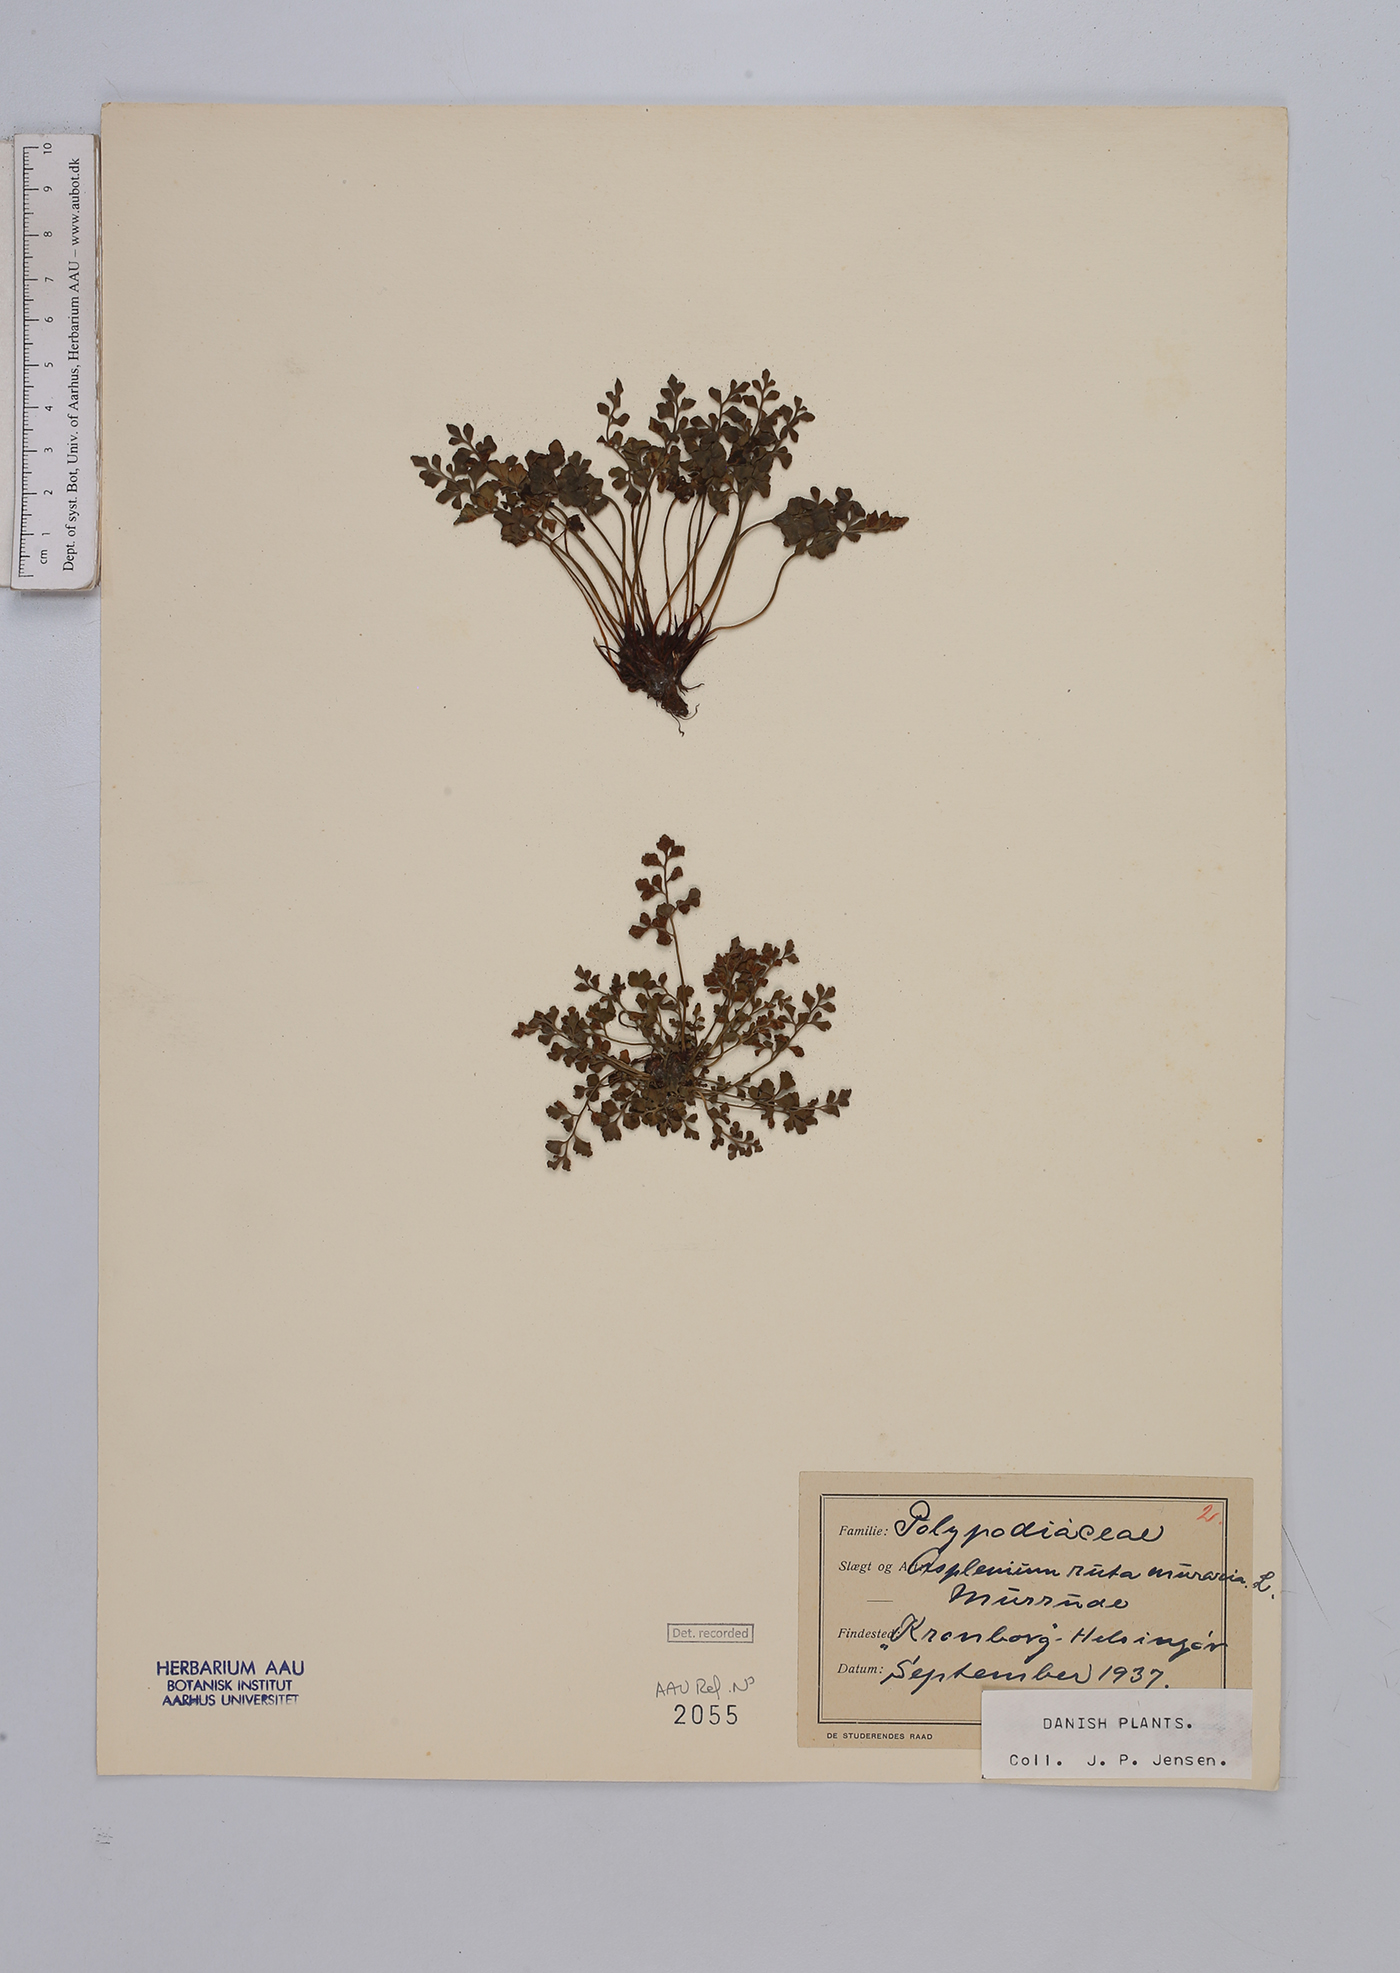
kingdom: Plantae
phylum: Tracheophyta
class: Polypodiopsida
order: Polypodiales
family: Aspleniaceae
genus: Asplenium
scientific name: Asplenium ruta-muraria
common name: Wall-rue
